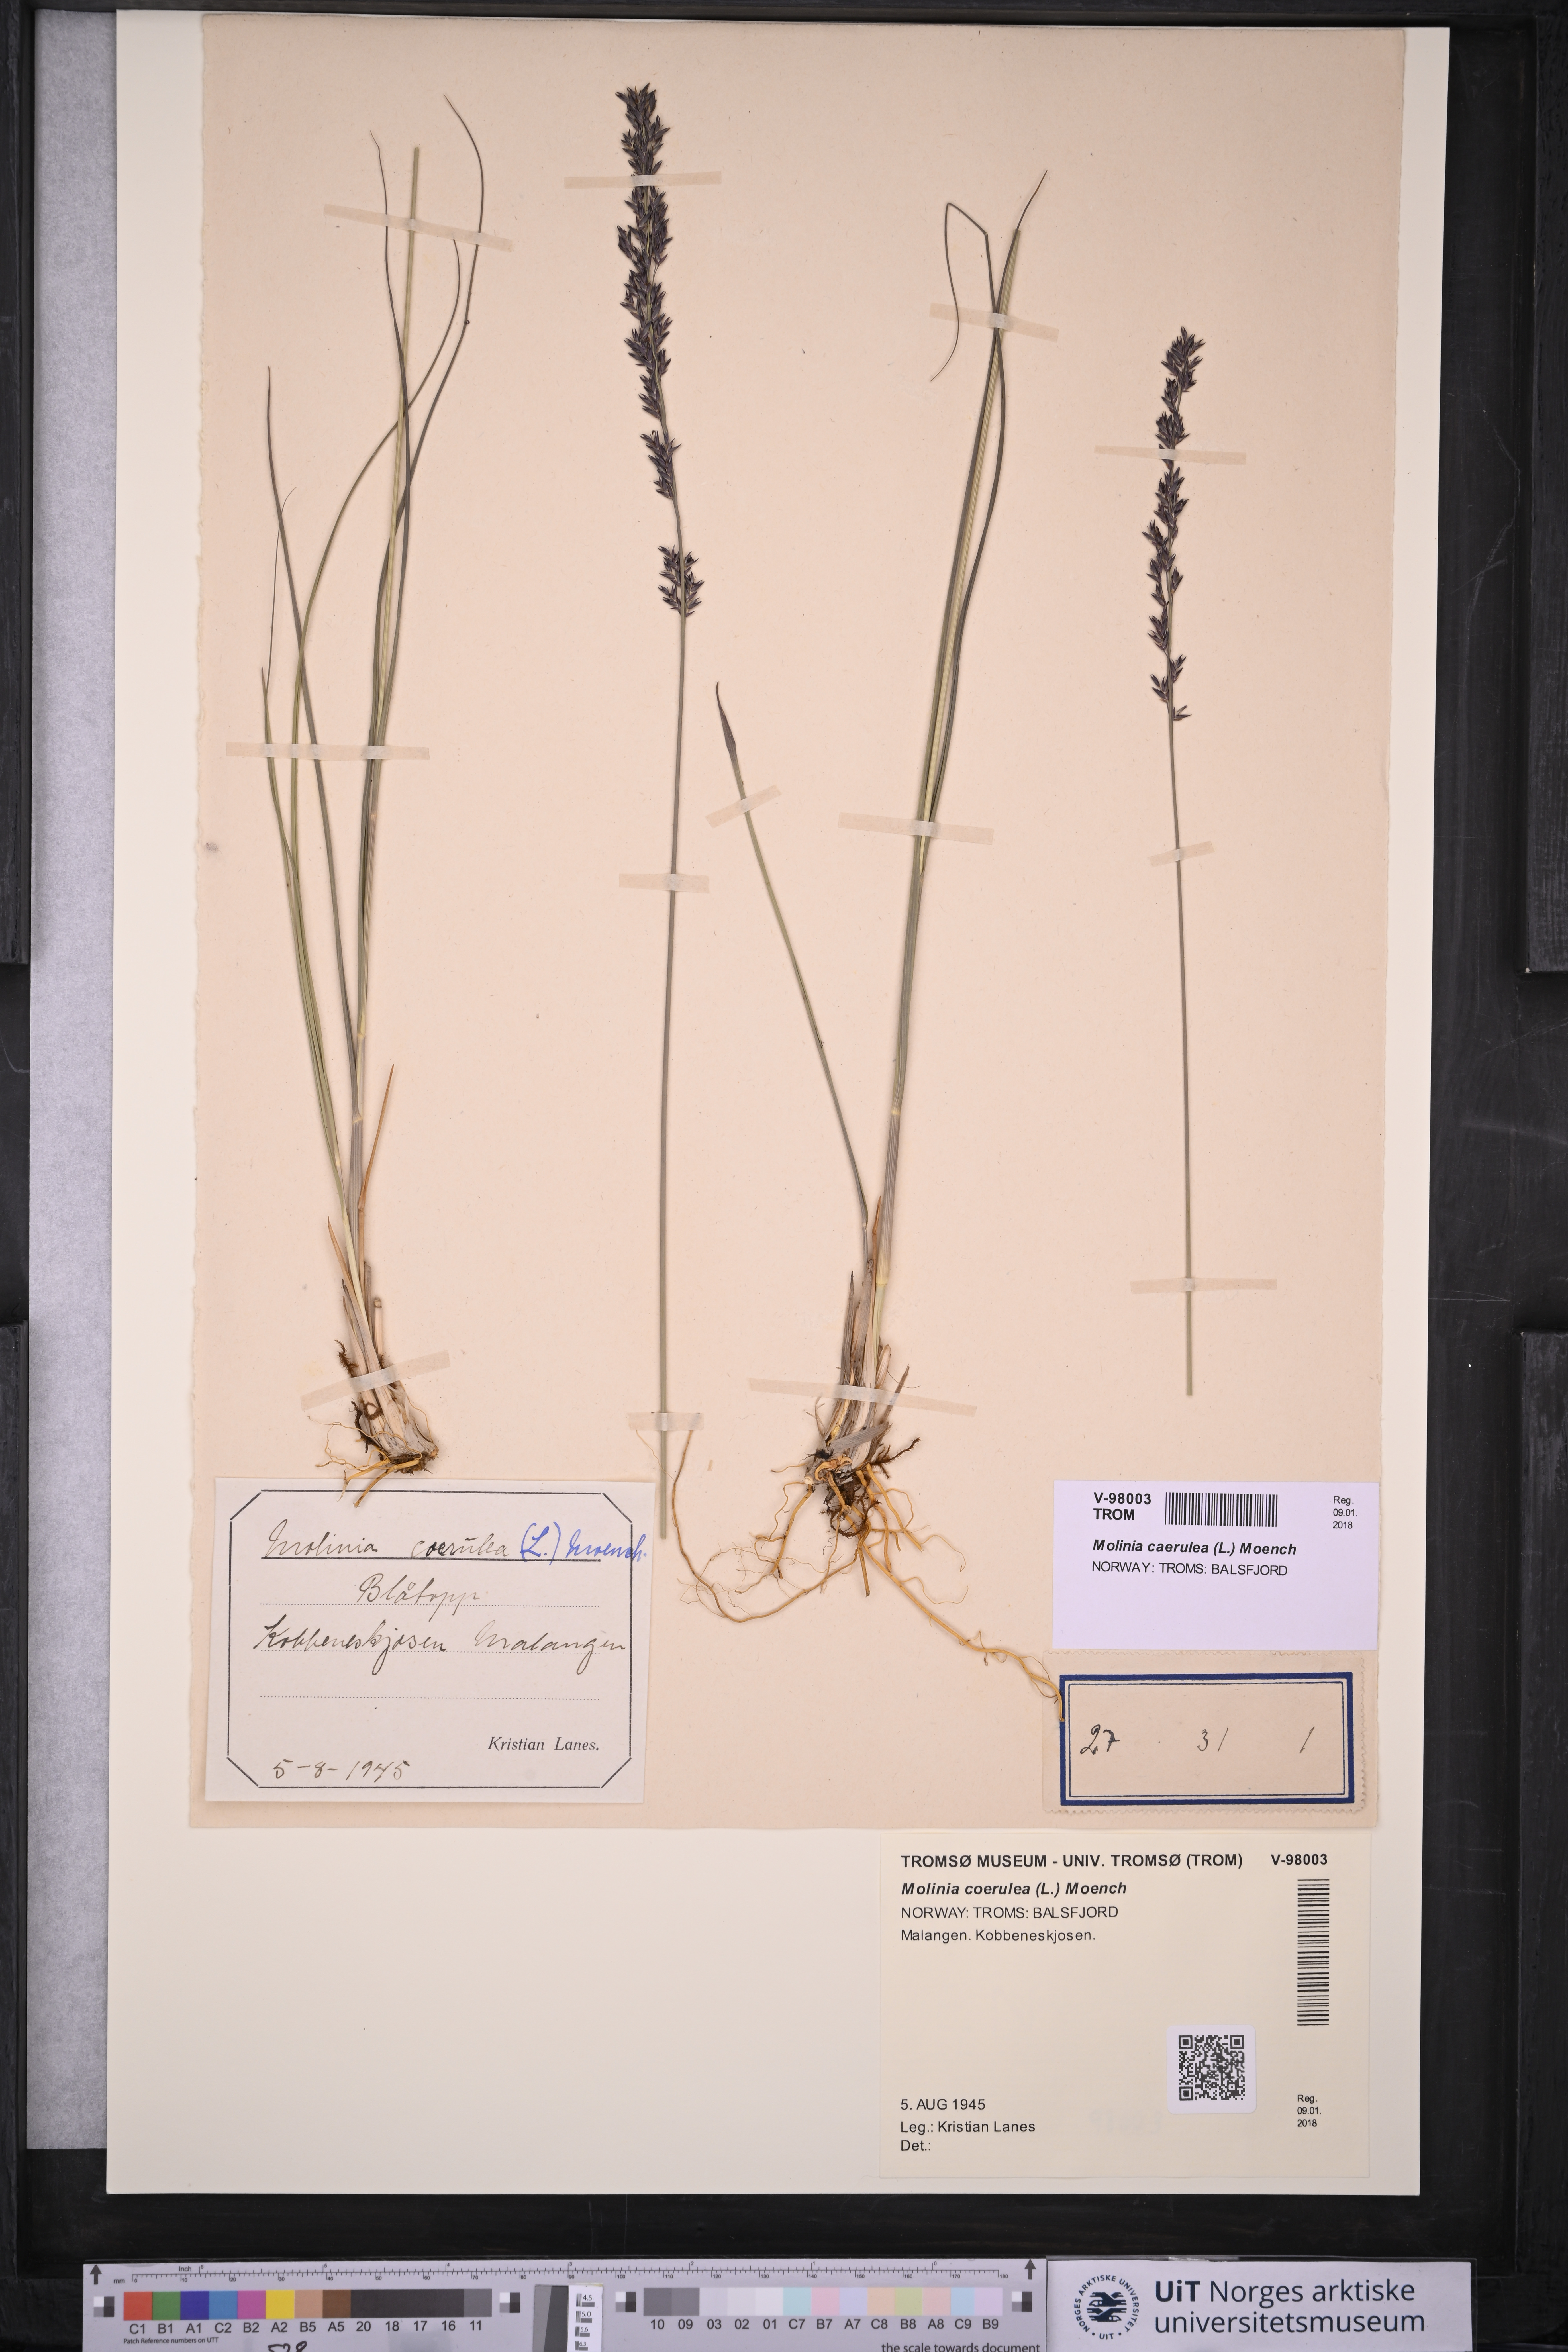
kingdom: Plantae
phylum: Tracheophyta
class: Liliopsida
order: Poales
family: Poaceae
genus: Molinia
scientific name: Molinia caerulea
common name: Purple moor-grass
